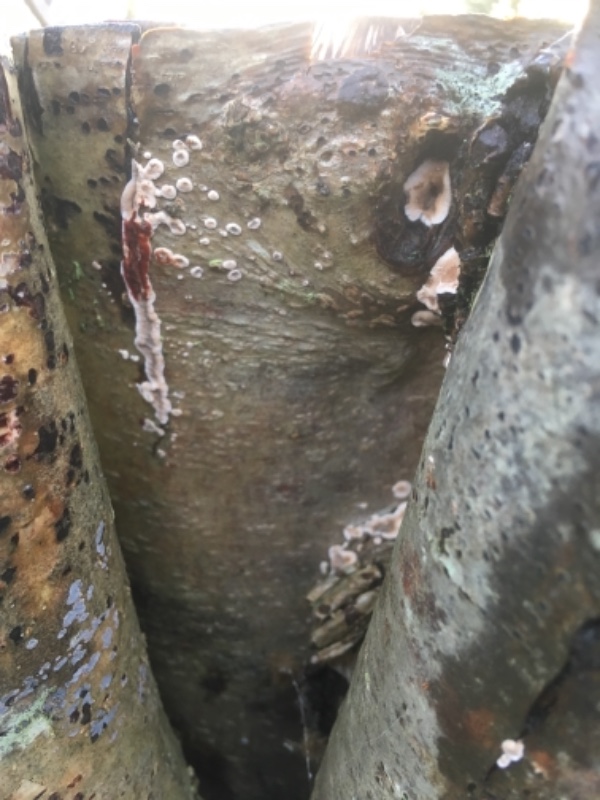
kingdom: Fungi
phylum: Basidiomycota
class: Agaricomycetes
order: Russulales
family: Stereaceae
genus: Stereum
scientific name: Stereum rugosum
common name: rynket lædersvamp
